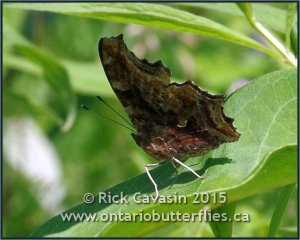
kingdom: Animalia
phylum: Arthropoda
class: Insecta
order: Lepidoptera
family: Nymphalidae
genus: Polygonia
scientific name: Polygonia comma
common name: Eastern Comma
